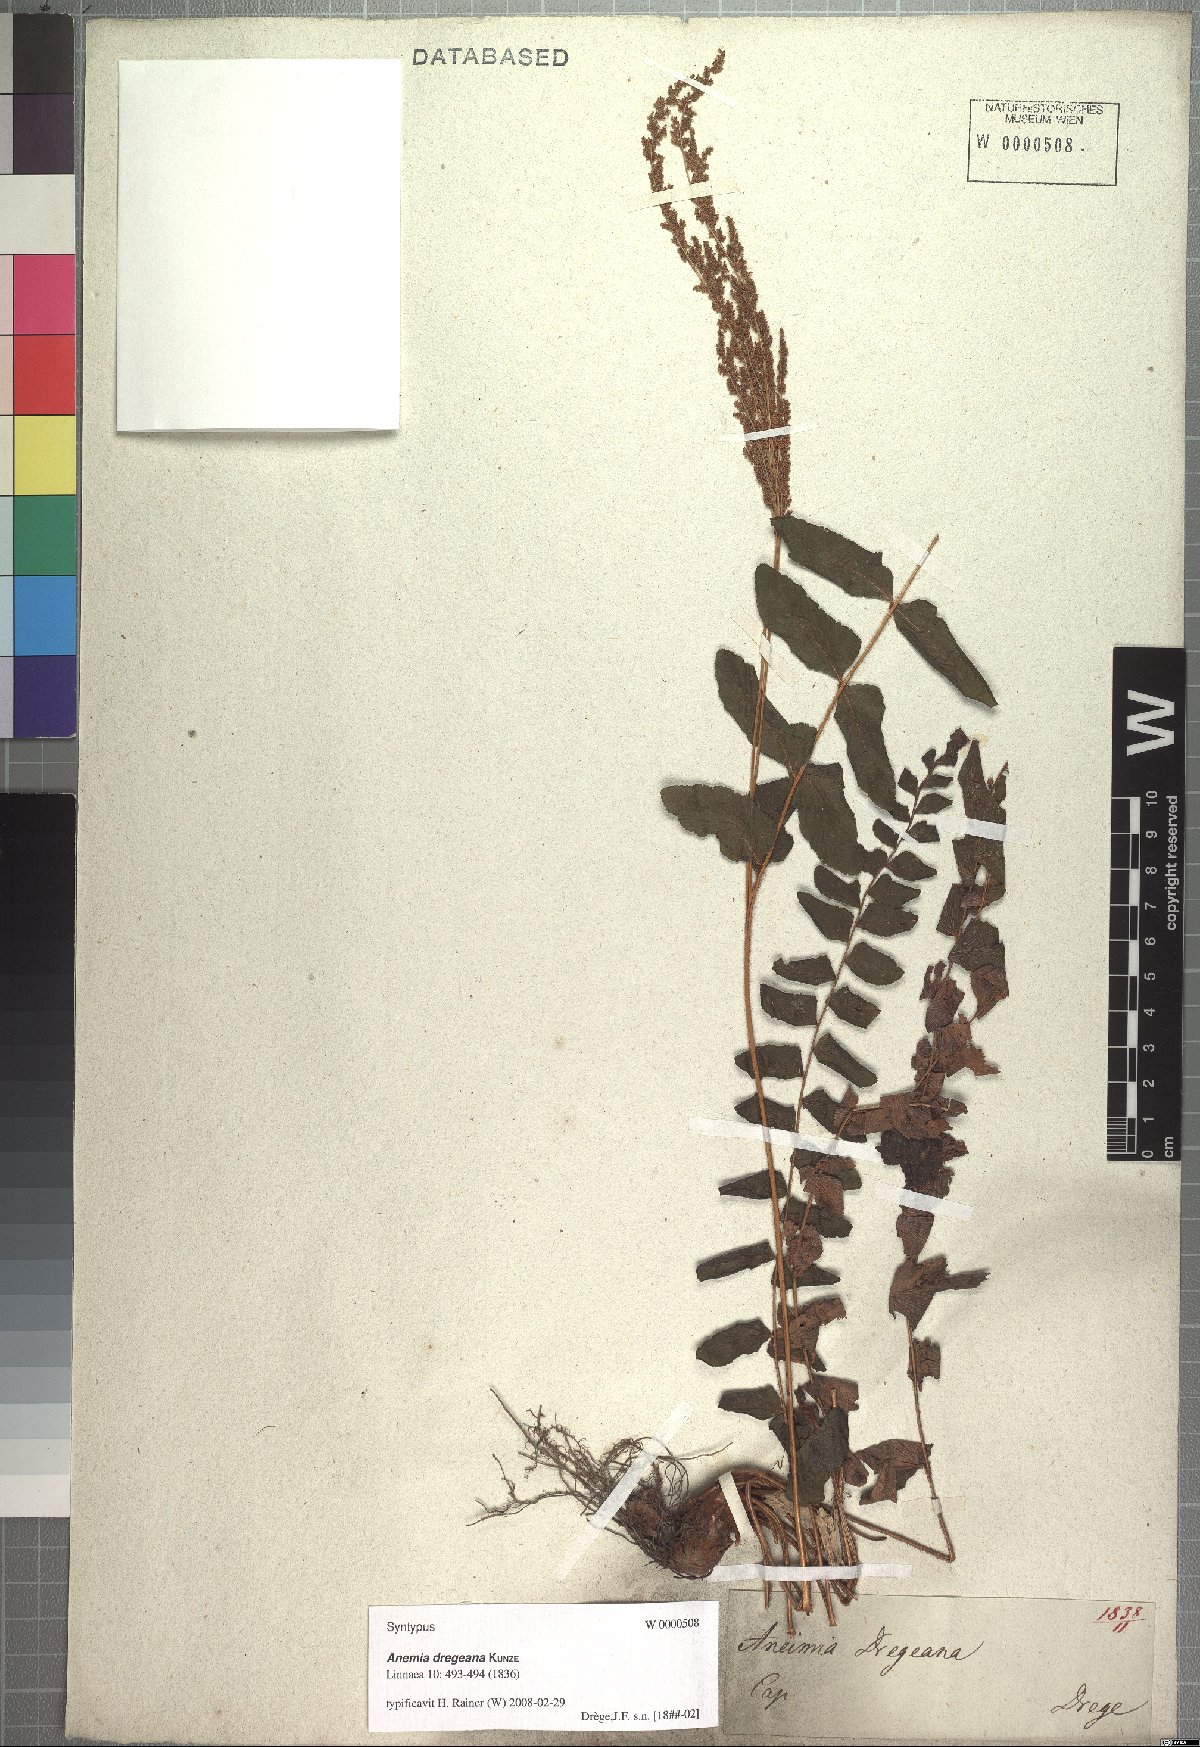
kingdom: Plantae
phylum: Tracheophyta
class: Polypodiopsida
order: Schizaeales
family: Anemiaceae
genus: Anemia
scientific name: Anemia dregeana
